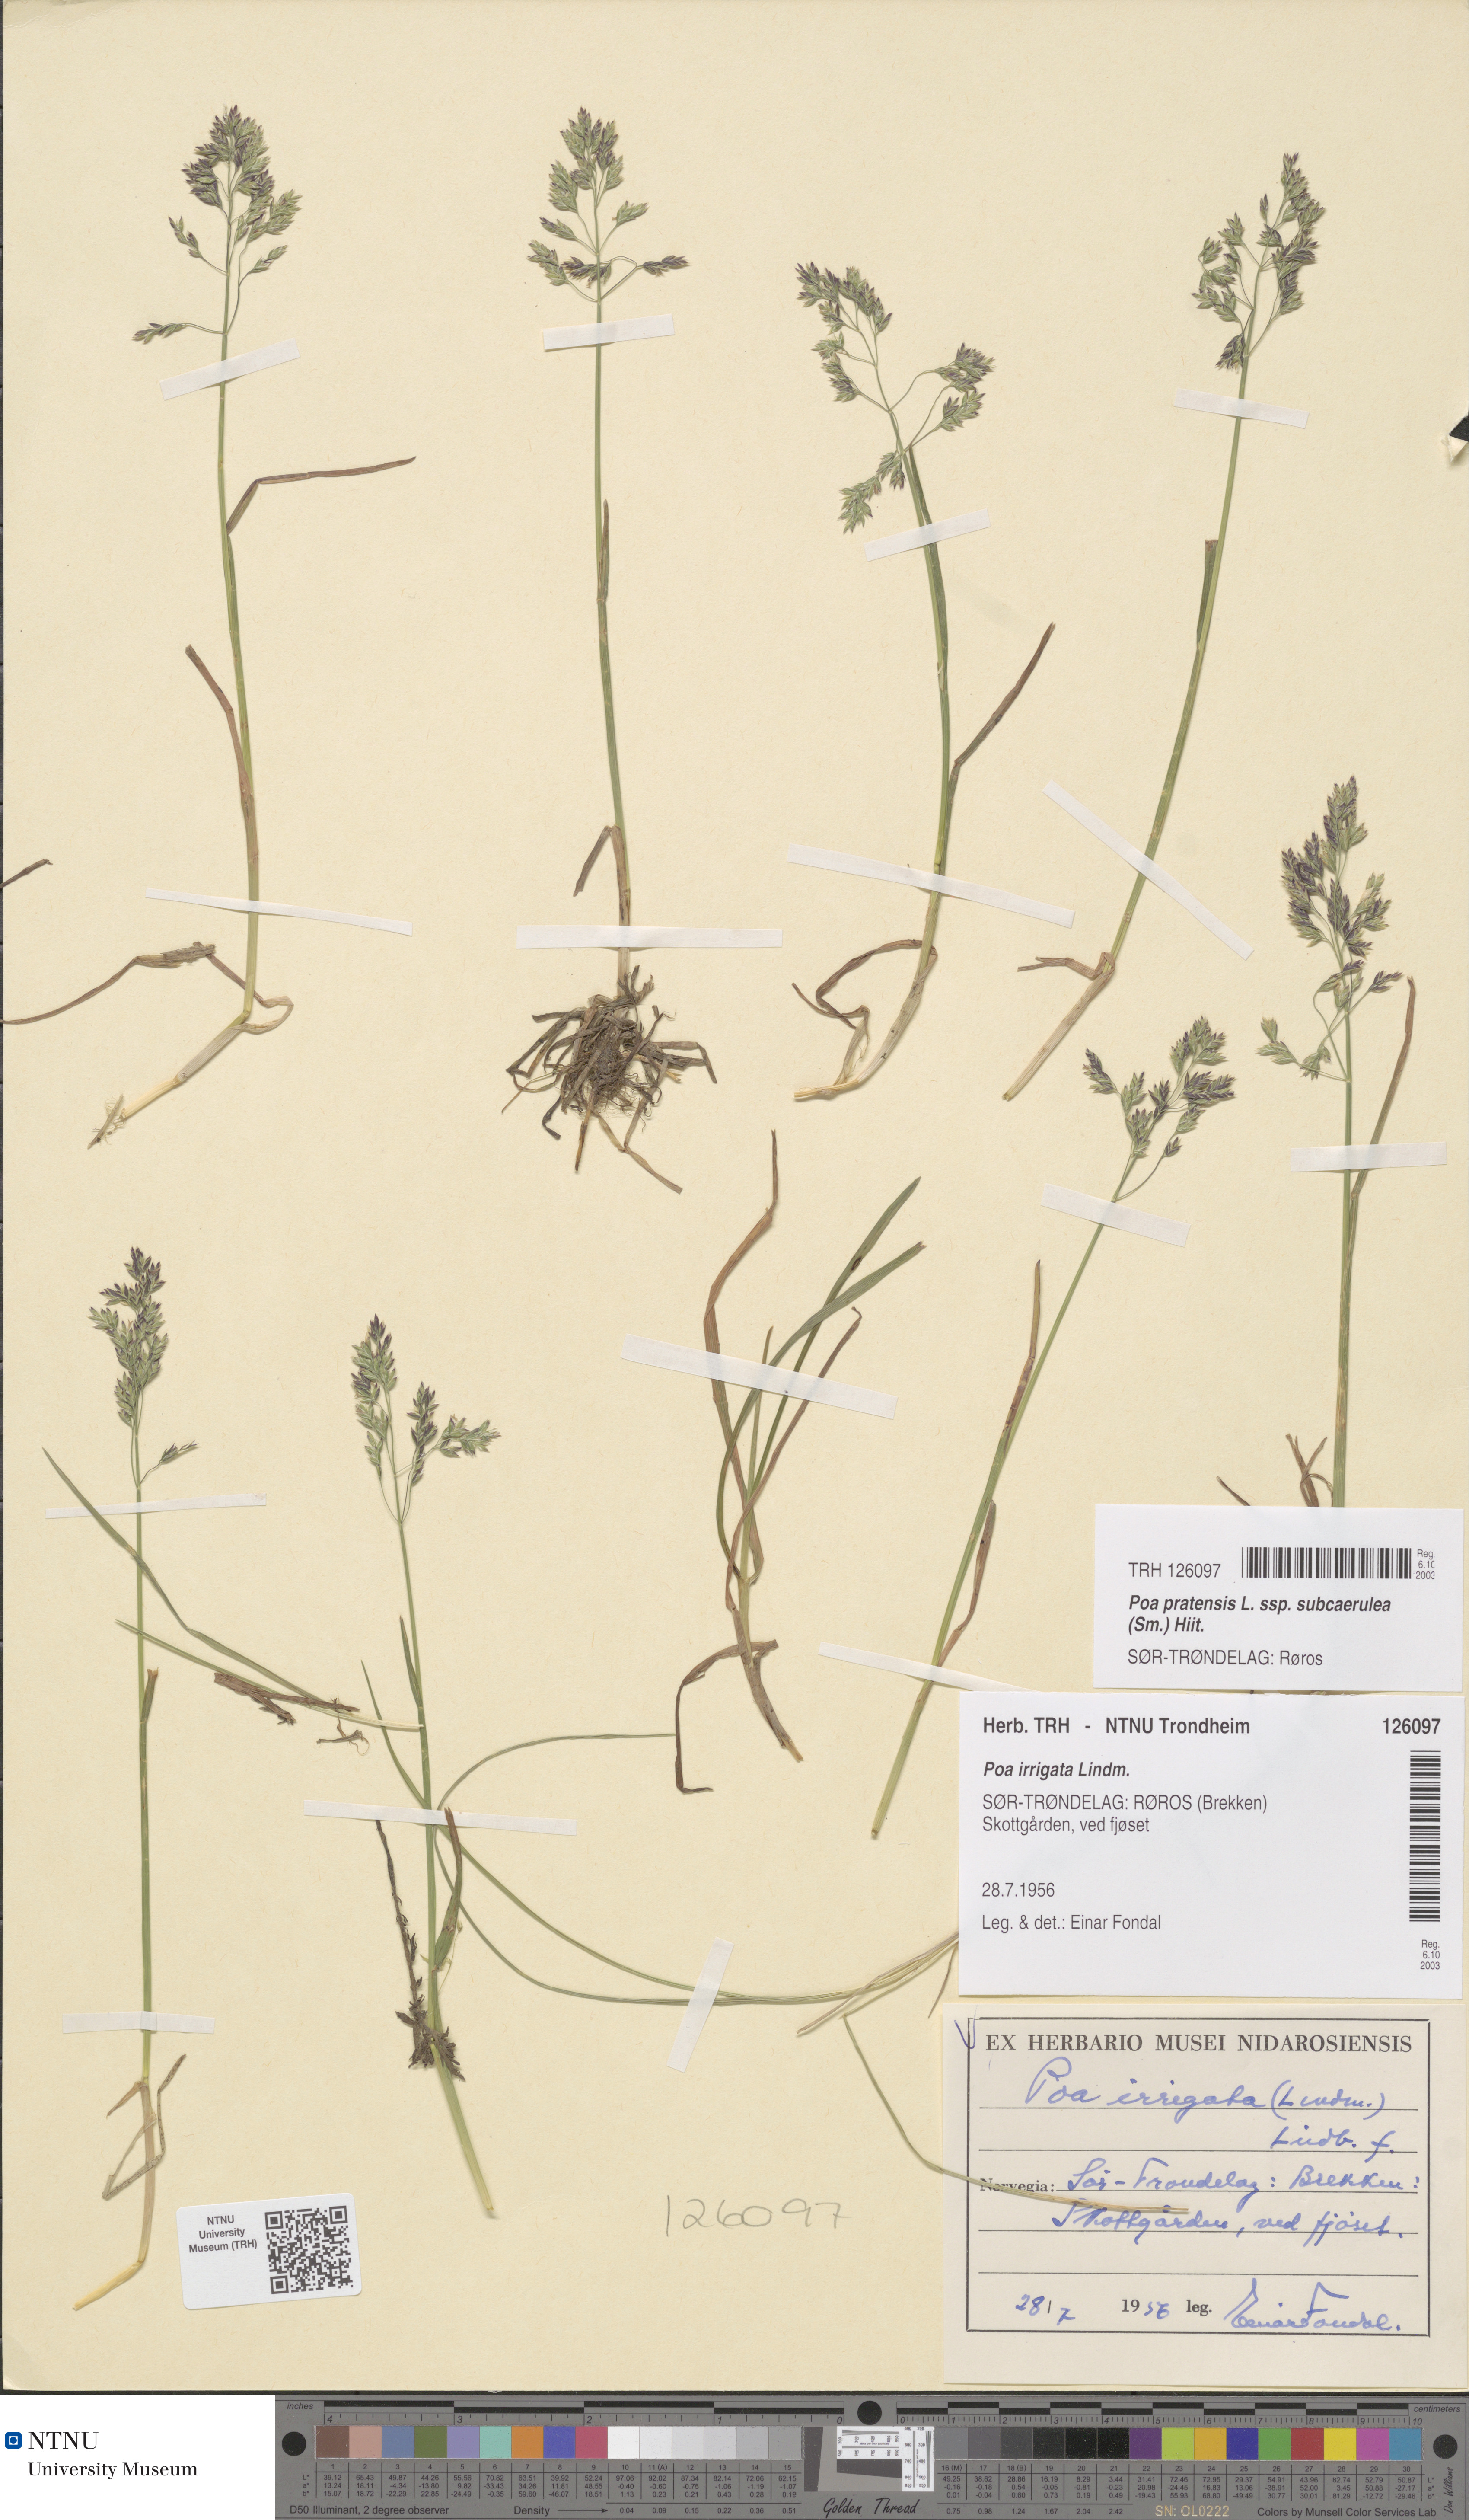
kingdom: Plantae
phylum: Tracheophyta
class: Liliopsida
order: Poales
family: Poaceae
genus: Poa
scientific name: Poa humilis
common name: Spreading meadow-grass
